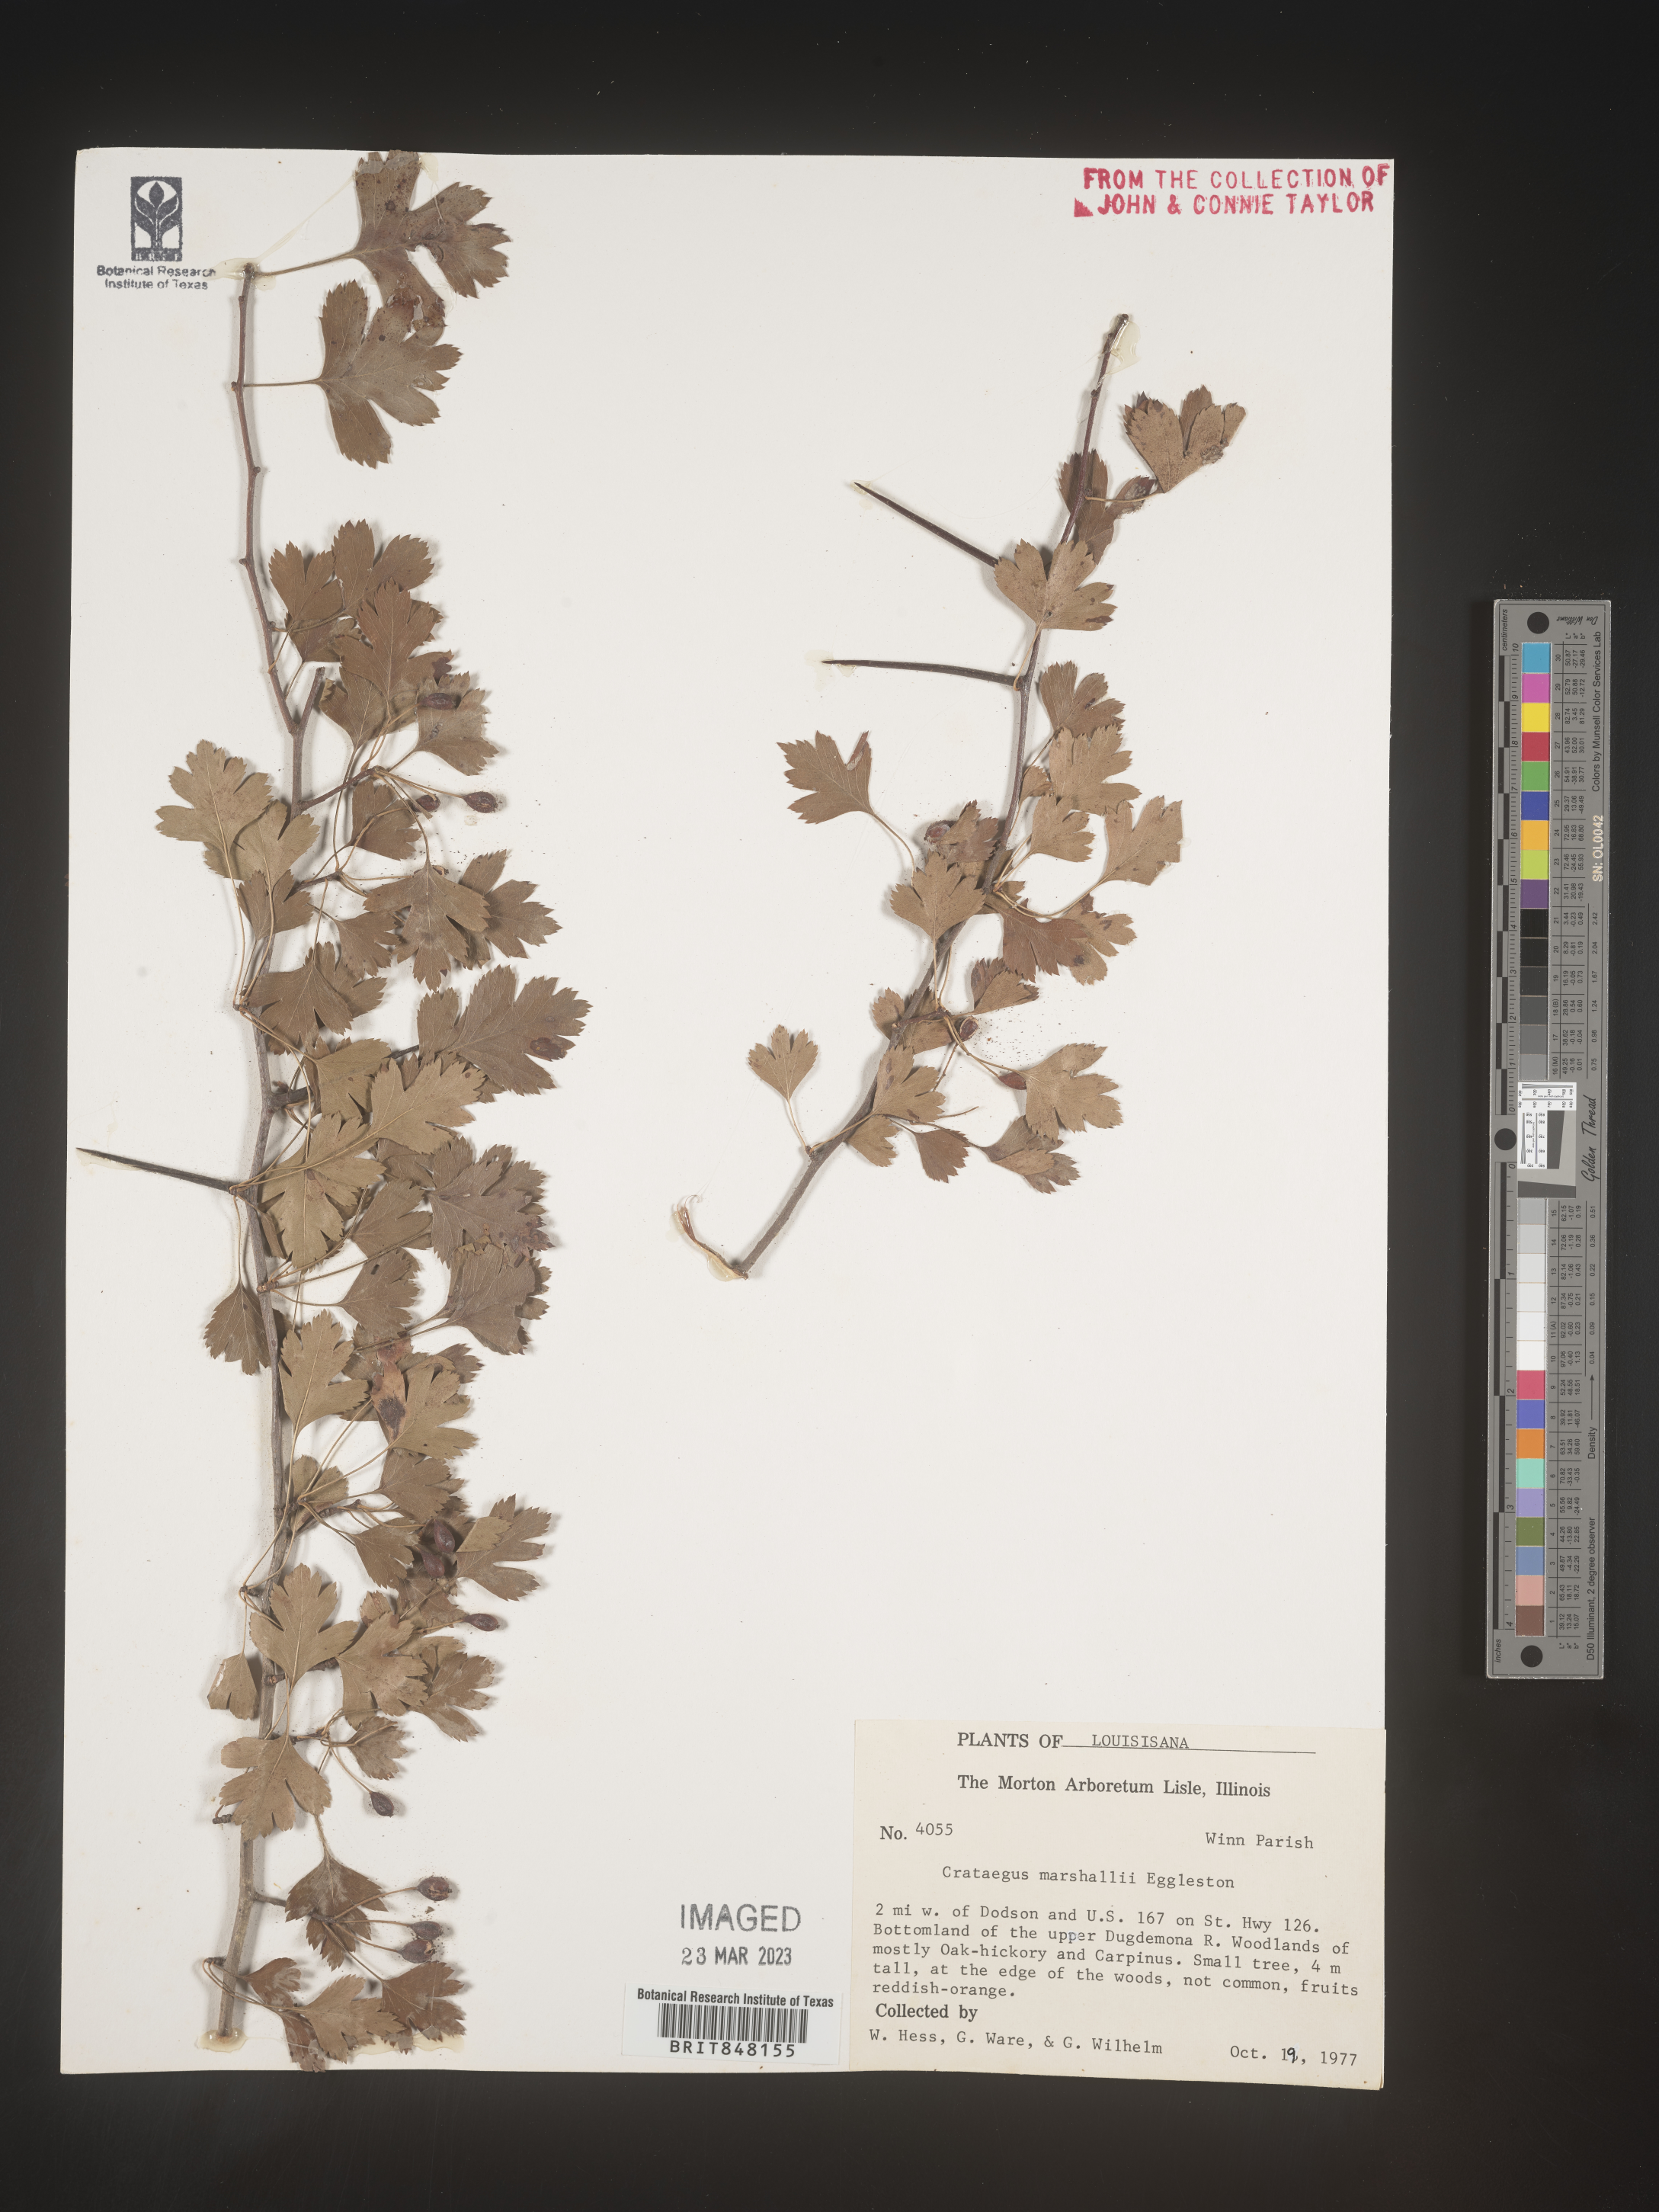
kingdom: Plantae
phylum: Tracheophyta
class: Magnoliopsida
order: Rosales
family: Rosaceae
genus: Crataegus
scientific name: Crataegus marshallii
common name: Parsley-hawthorn
